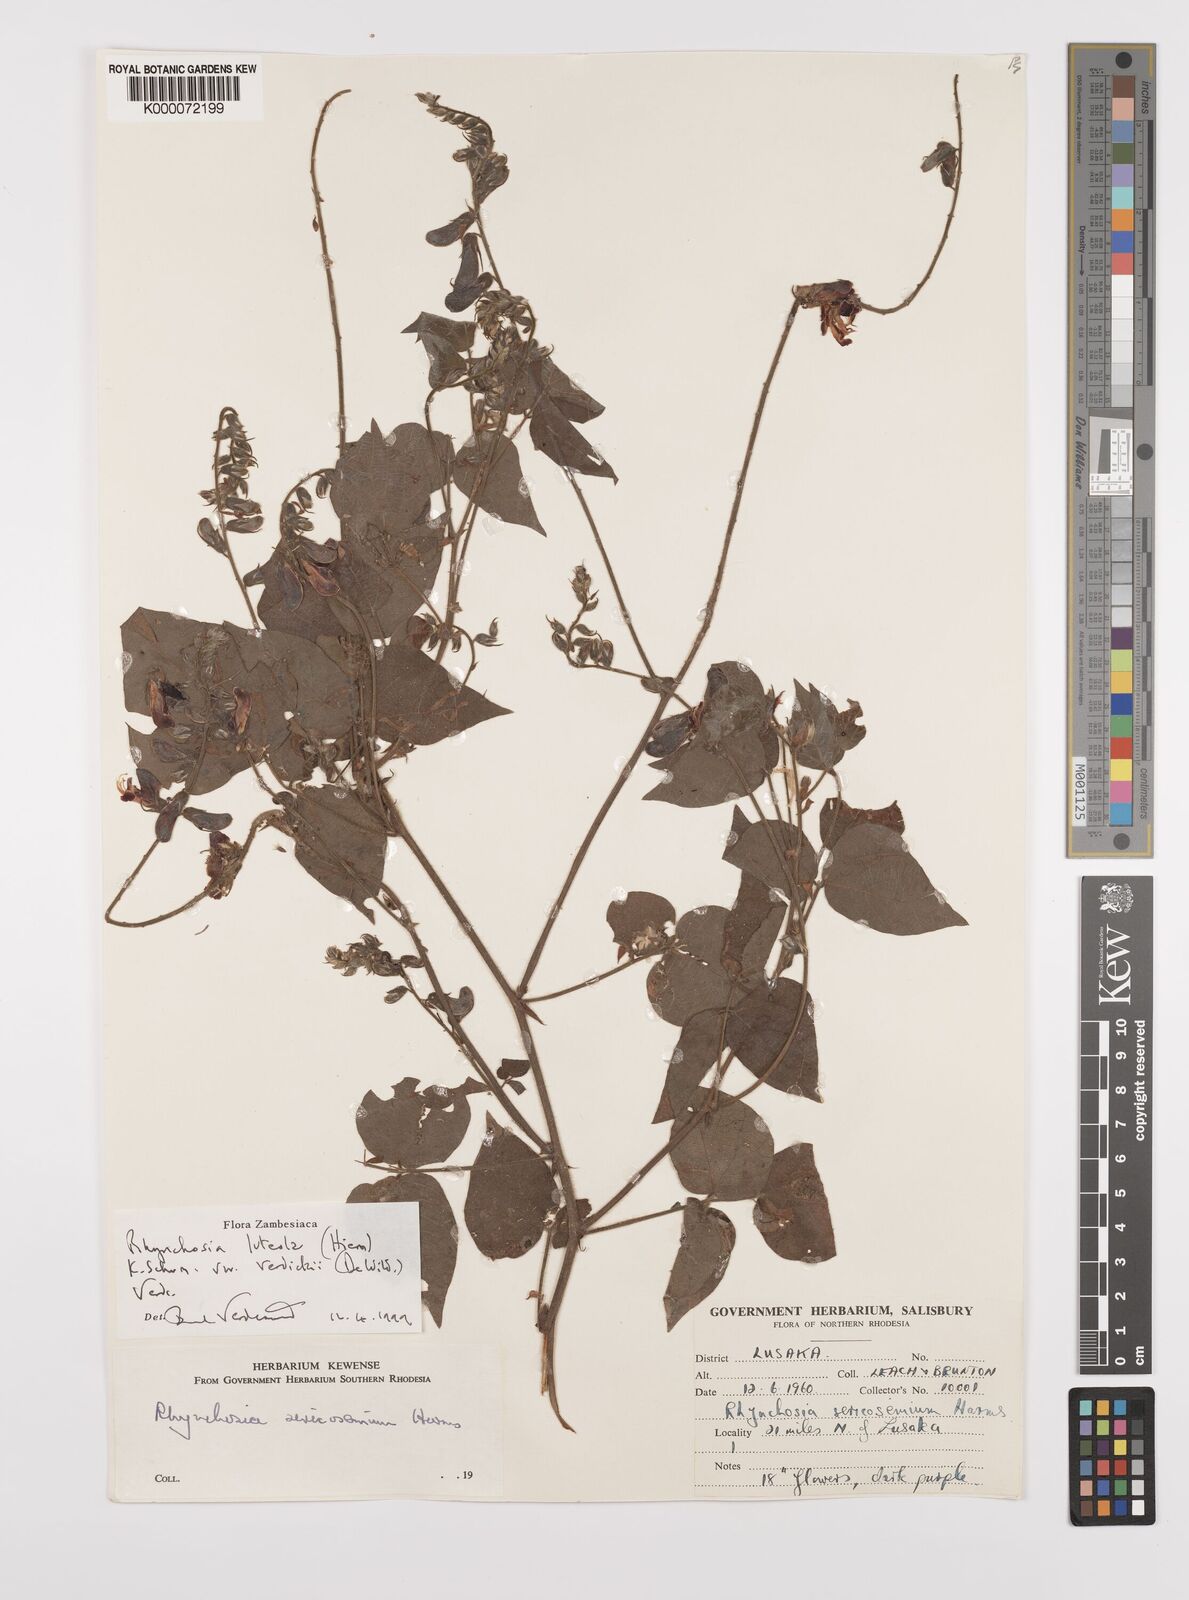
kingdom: Plantae
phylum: Tracheophyta
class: Magnoliopsida
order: Fabales
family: Fabaceae
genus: Rhynchosia
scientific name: Rhynchosia luteola
